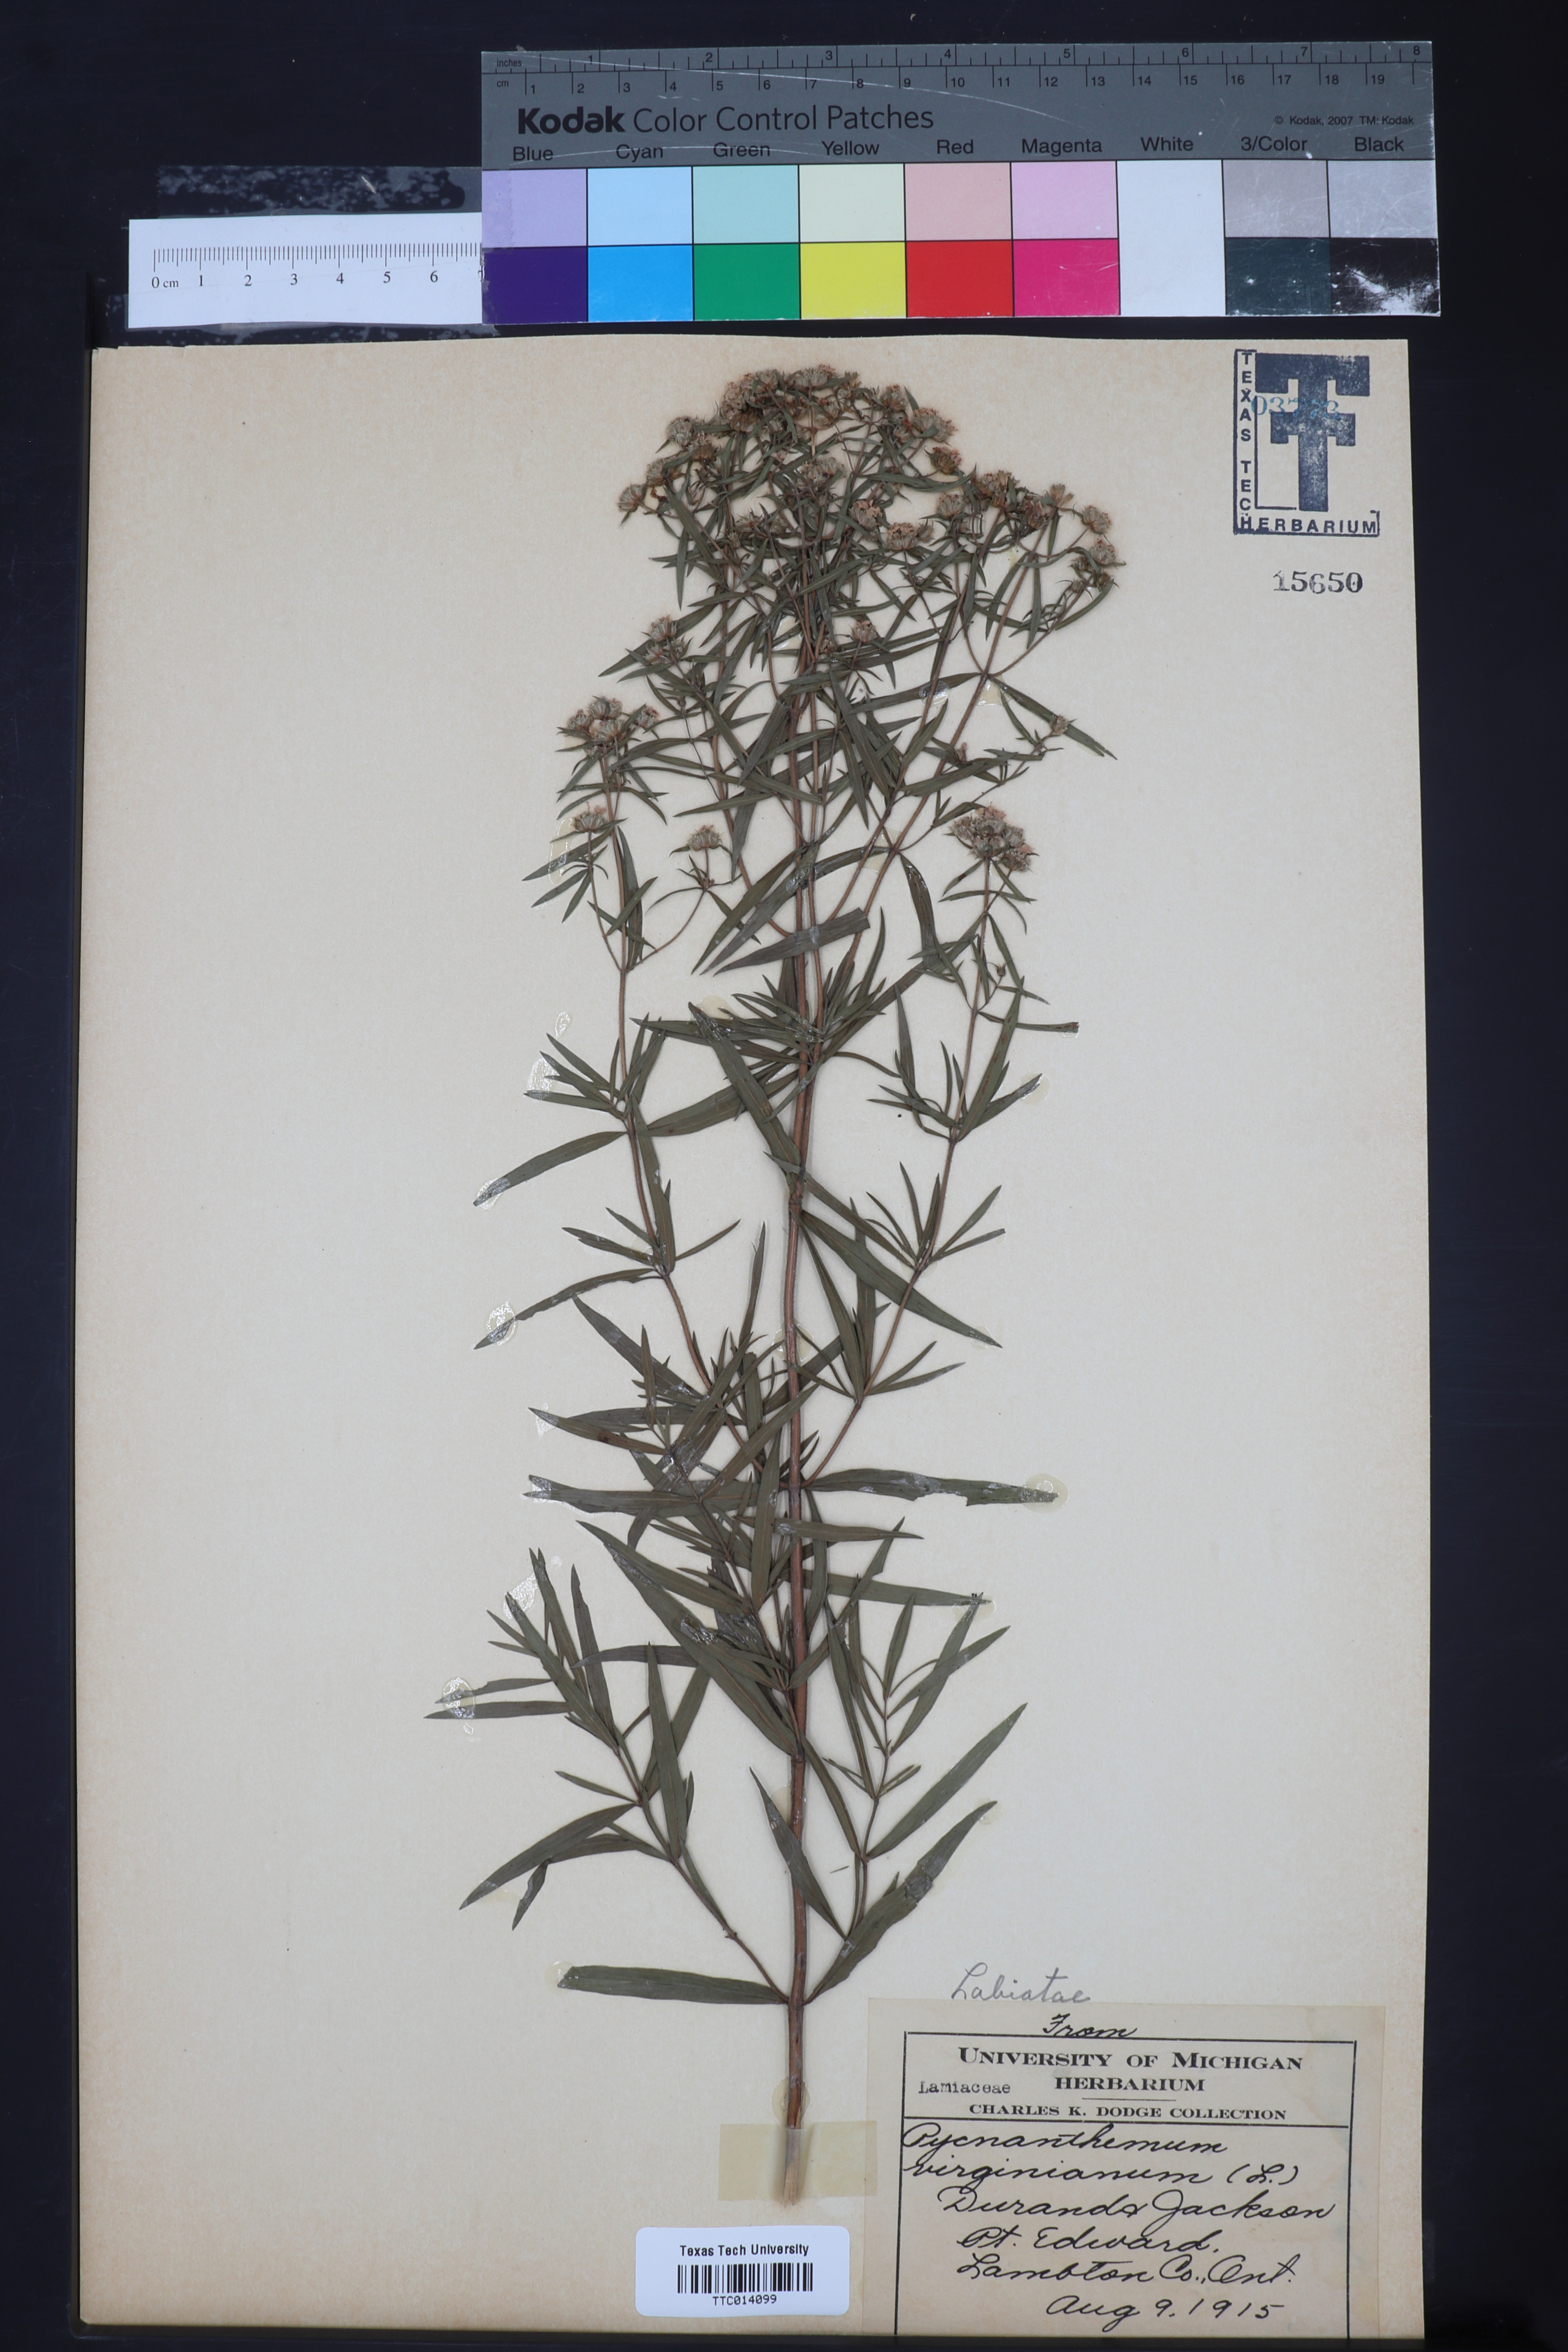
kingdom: Plantae
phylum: Tracheophyta
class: Magnoliopsida
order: Lamiales
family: Lamiaceae
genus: Pycnanthemum
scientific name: Pycnanthemum virginianum
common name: Virginia mountain-mint
